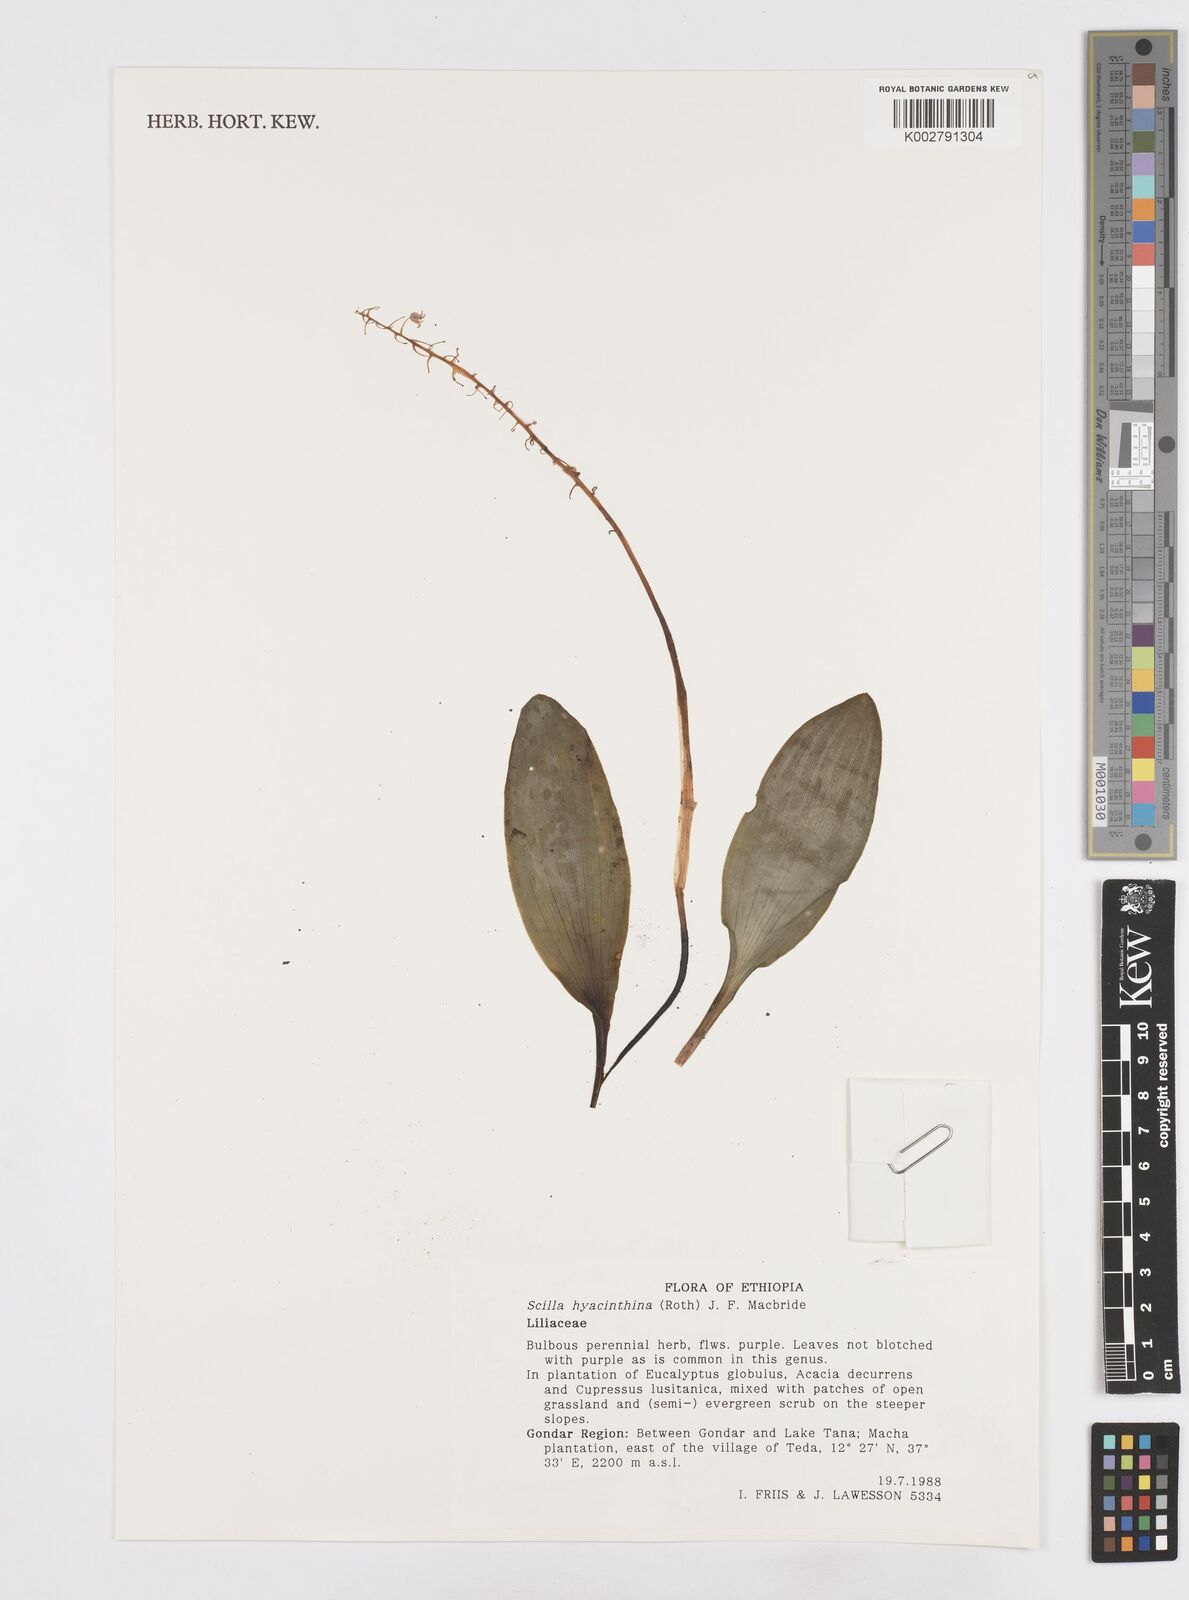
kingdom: Plantae
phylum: Tracheophyta
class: Liliopsida
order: Asparagales
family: Asparagaceae
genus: Ledebouria
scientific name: Ledebouria revoluta
